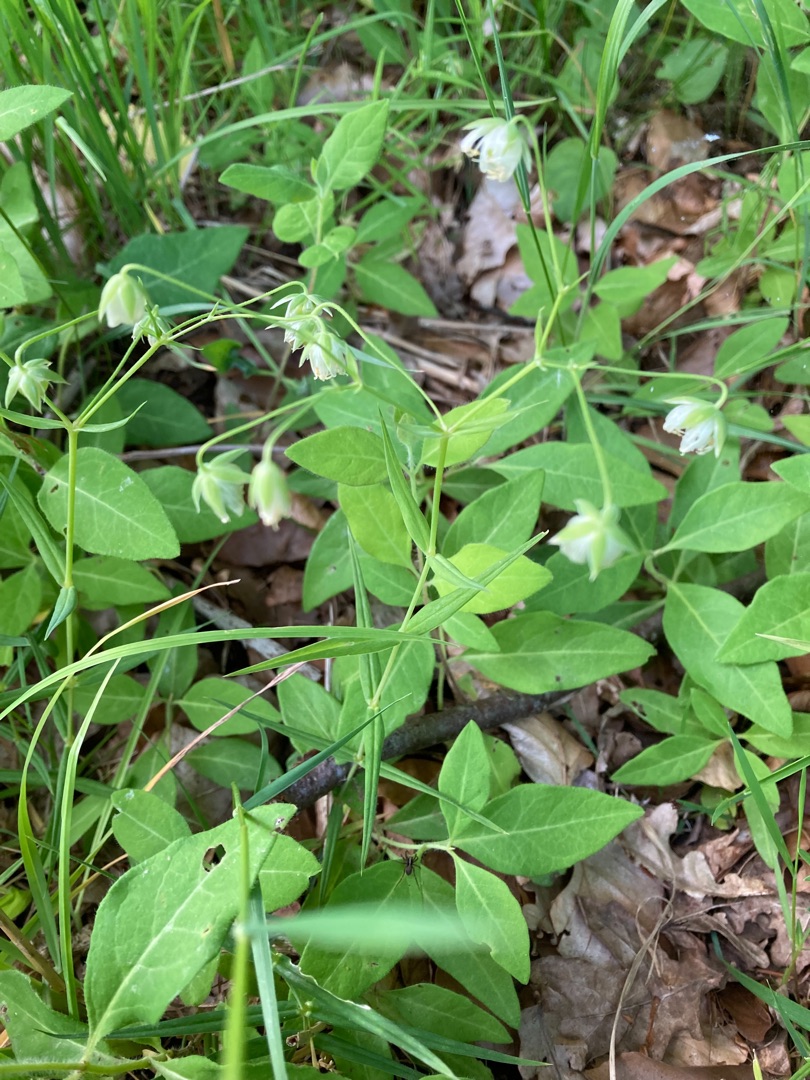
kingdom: Plantae
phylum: Tracheophyta
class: Magnoliopsida
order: Caryophyllales
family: Caryophyllaceae
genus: Rabelera
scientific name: Rabelera holostea
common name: Stor fladstjerne
